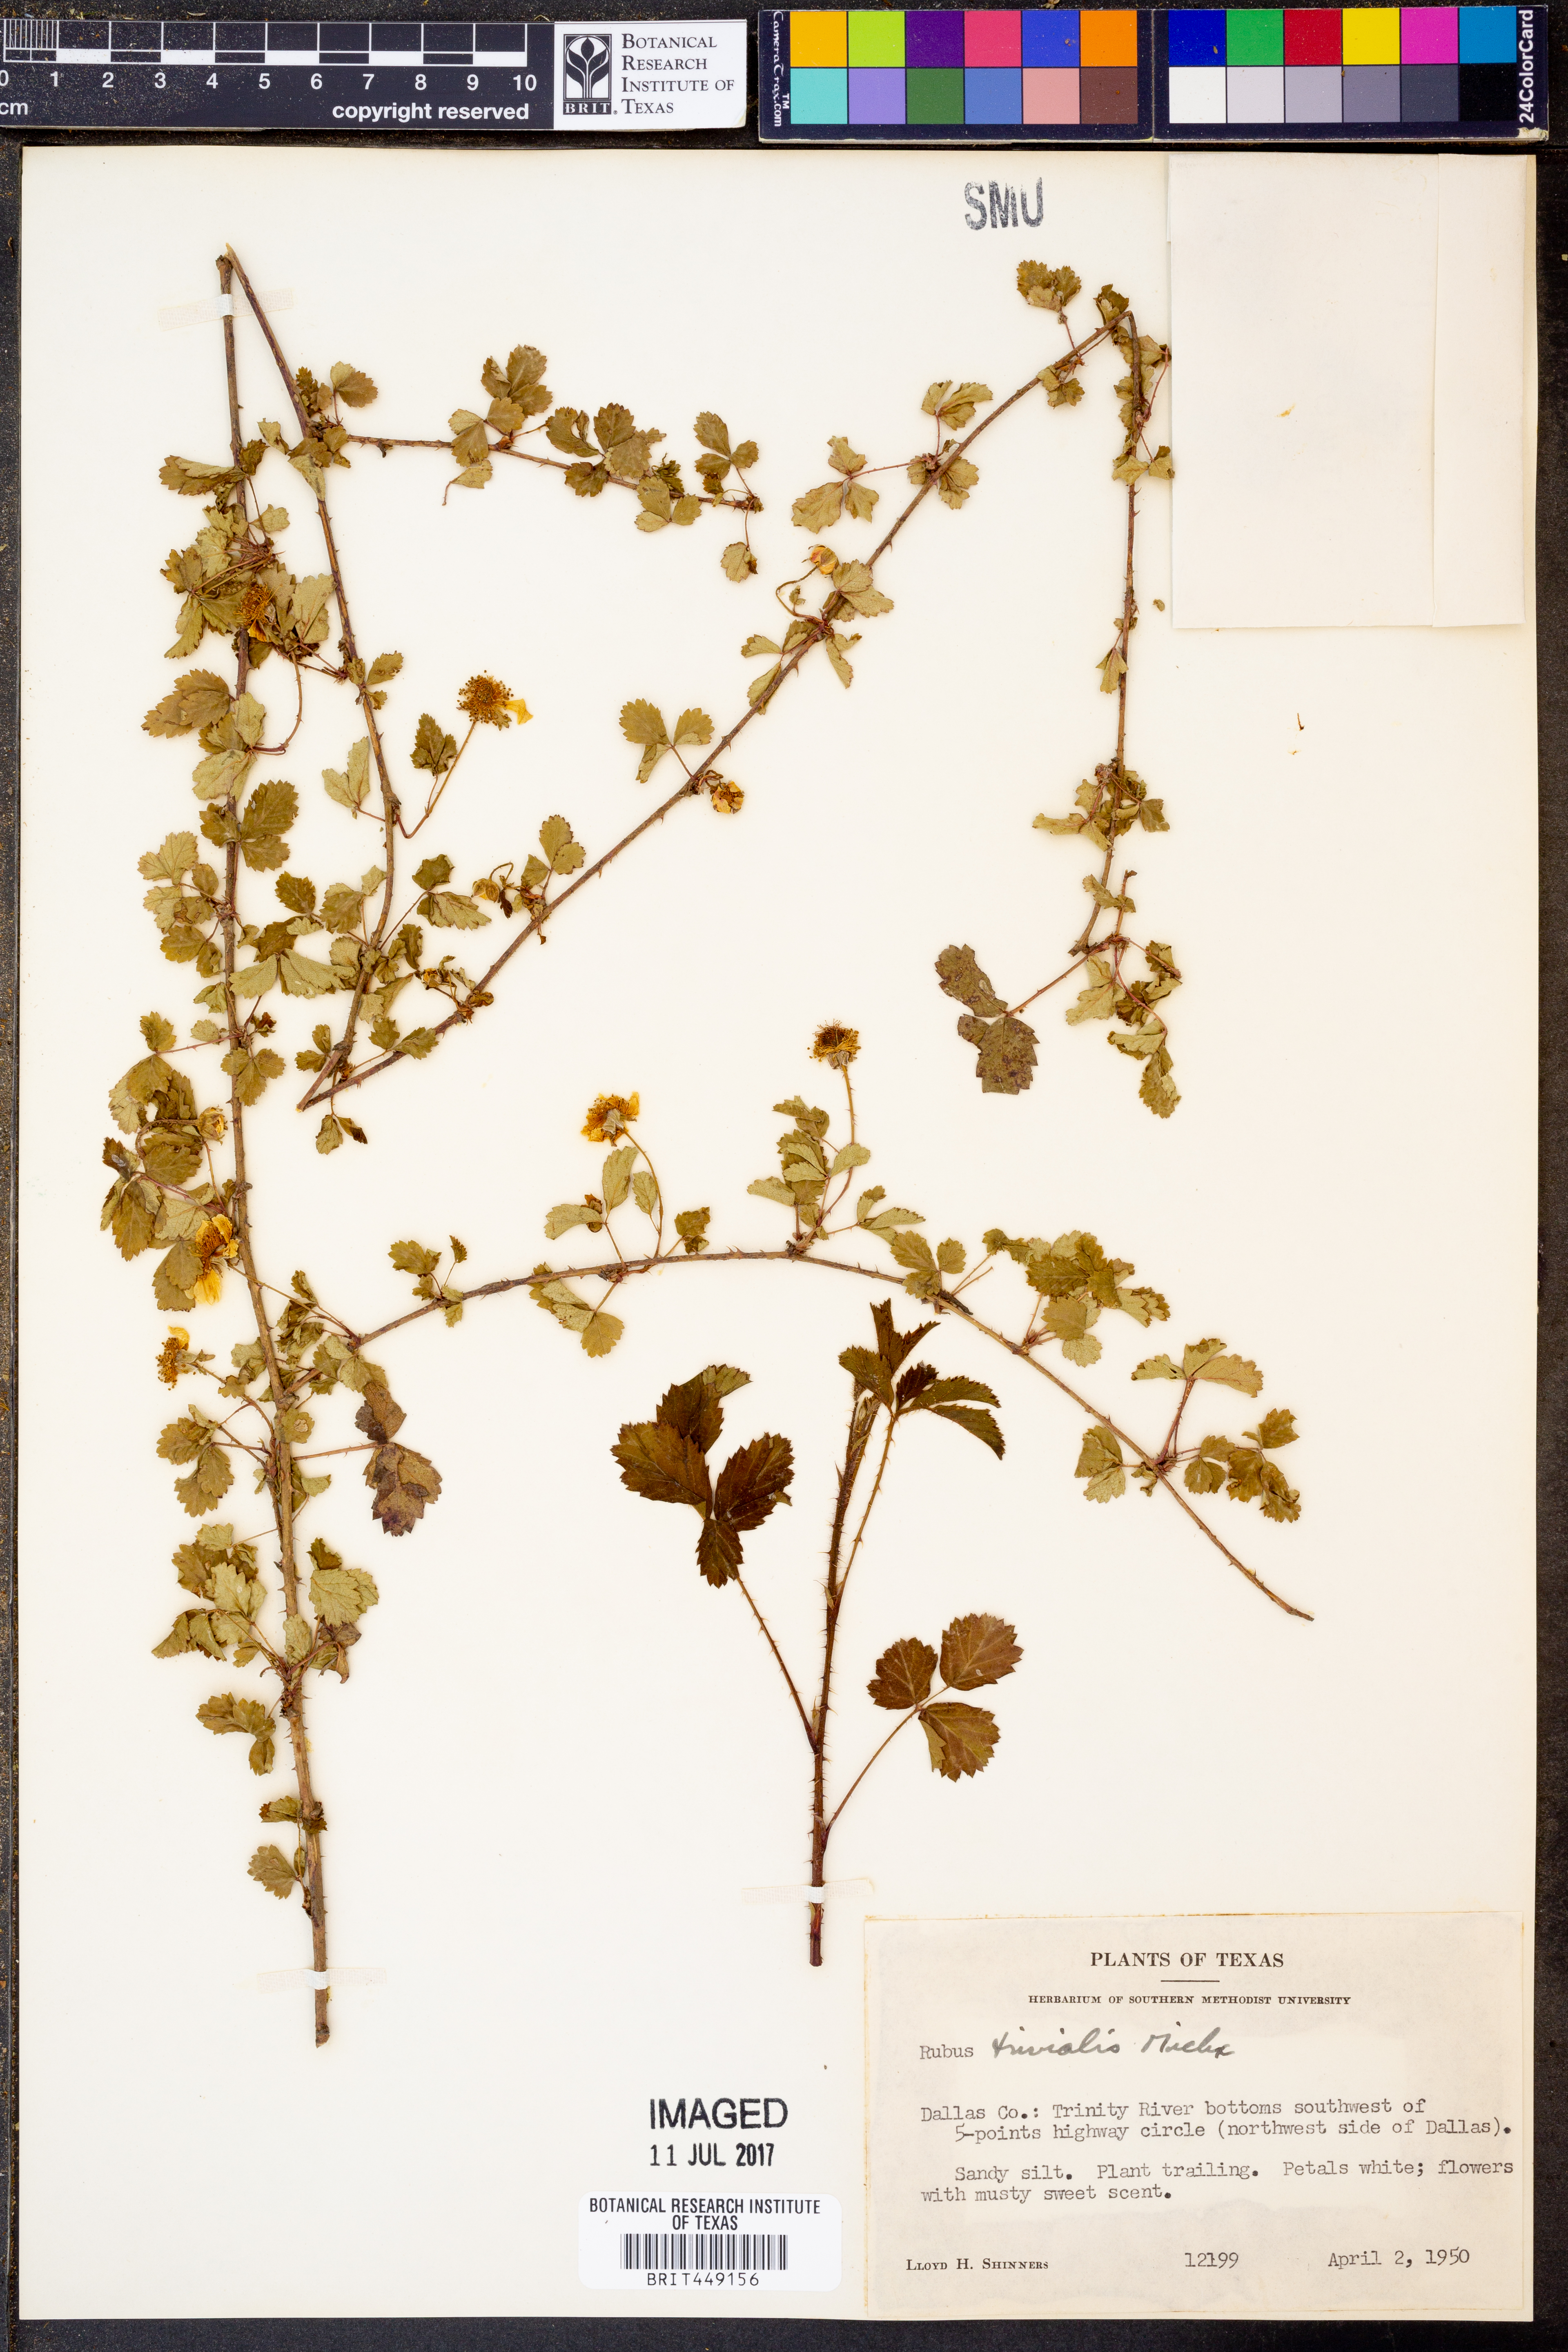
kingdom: Plantae
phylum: Tracheophyta
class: Magnoliopsida
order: Rosales
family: Rosaceae
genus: Rubus
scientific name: Rubus trivialis
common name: Southern dewberry
